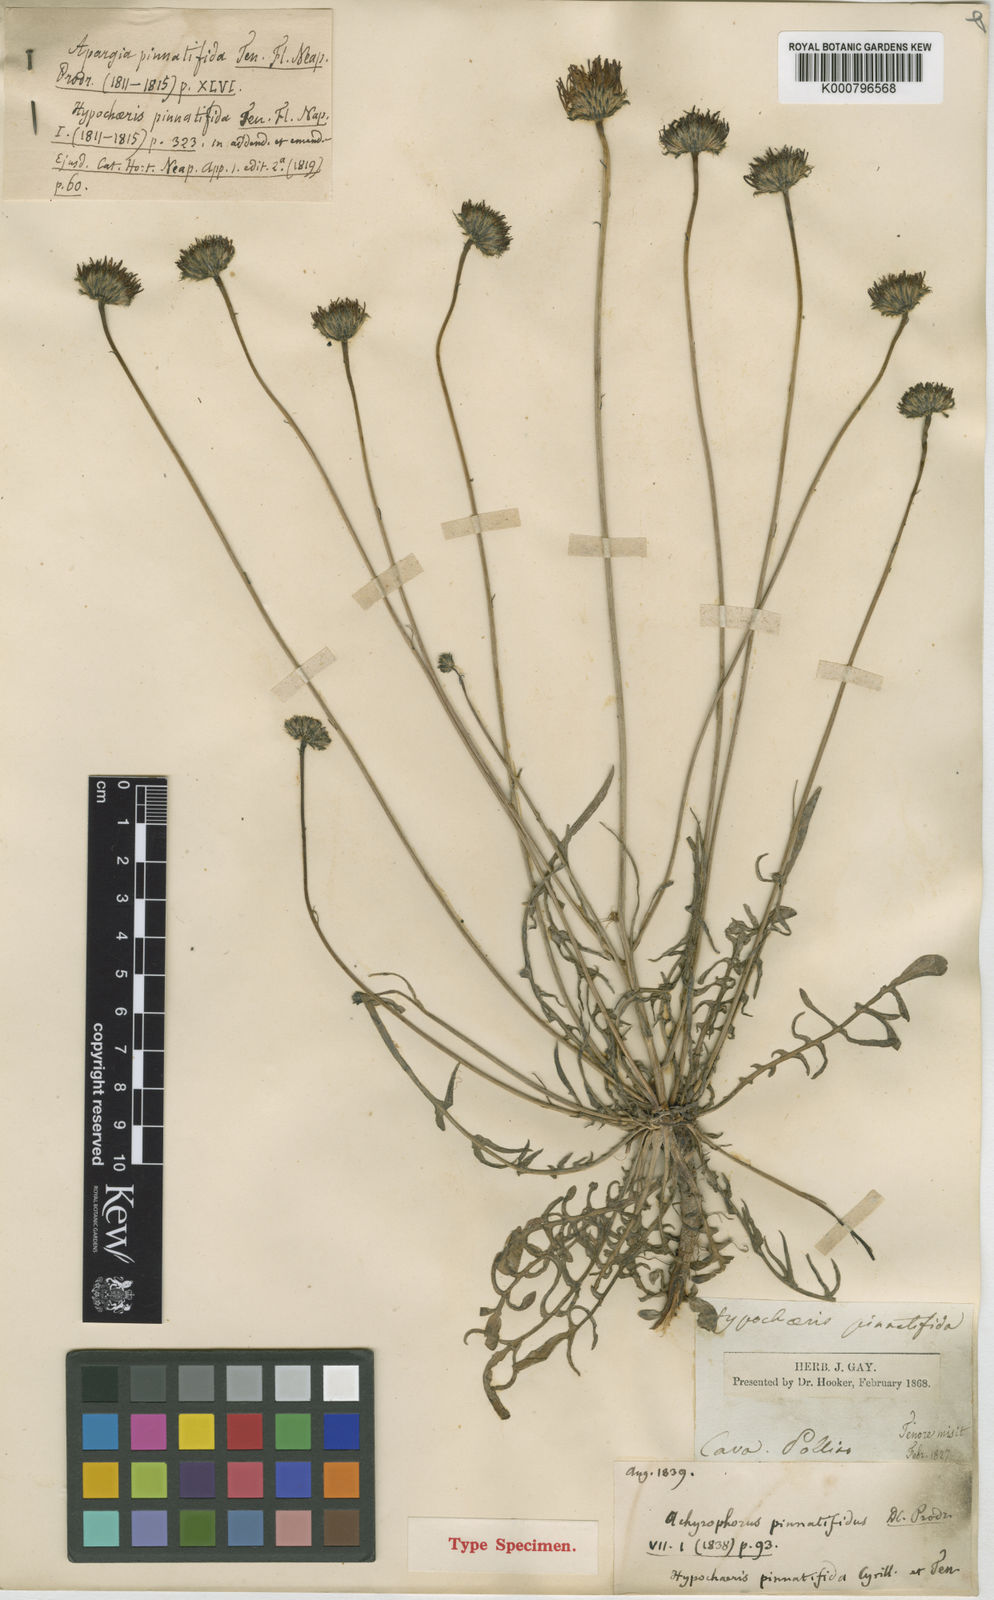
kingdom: Plantae
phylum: Tracheophyta
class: Magnoliopsida
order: Asterales
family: Asteraceae
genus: Hypochaeris
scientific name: Hypochaeris cretensis
